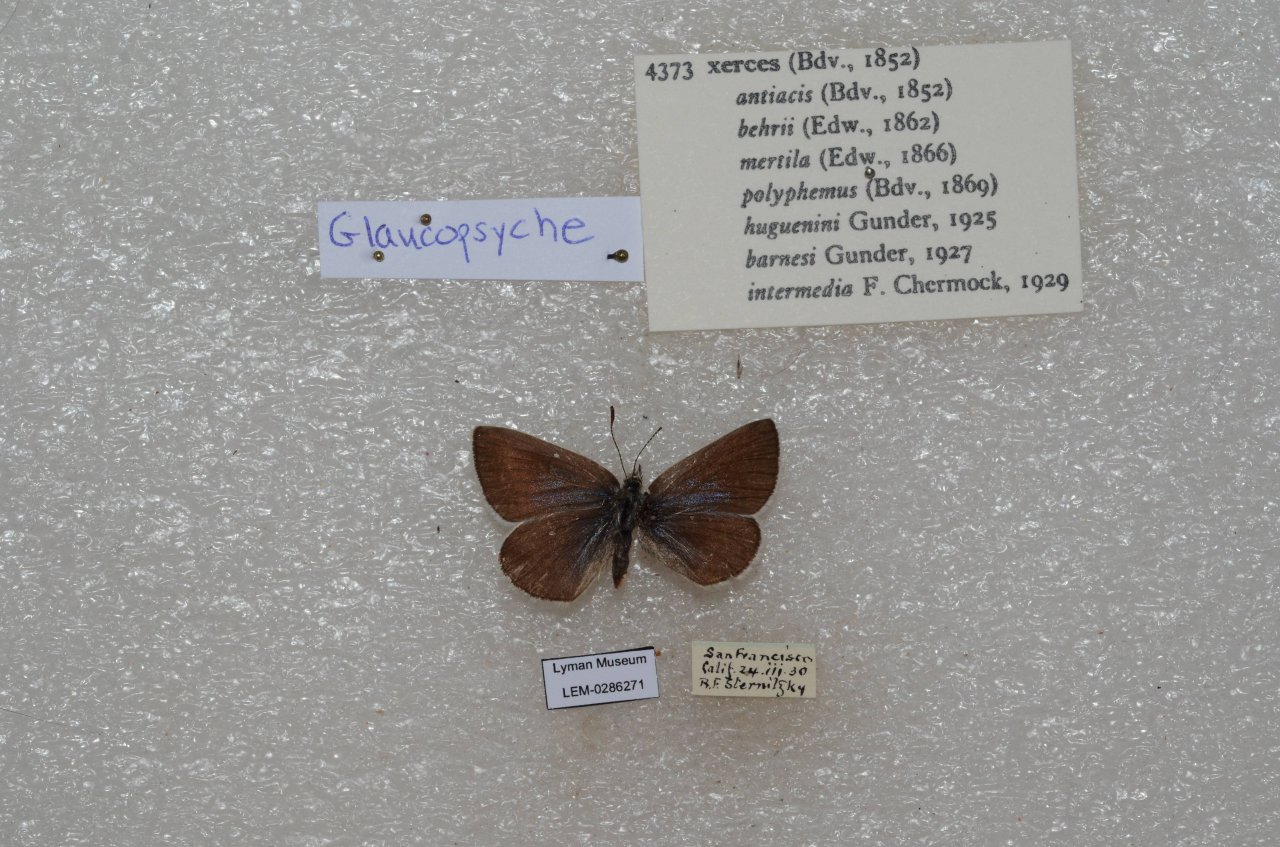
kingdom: Animalia
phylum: Arthropoda
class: Insecta
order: Lepidoptera
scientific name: Lepidoptera
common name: Butterflies
